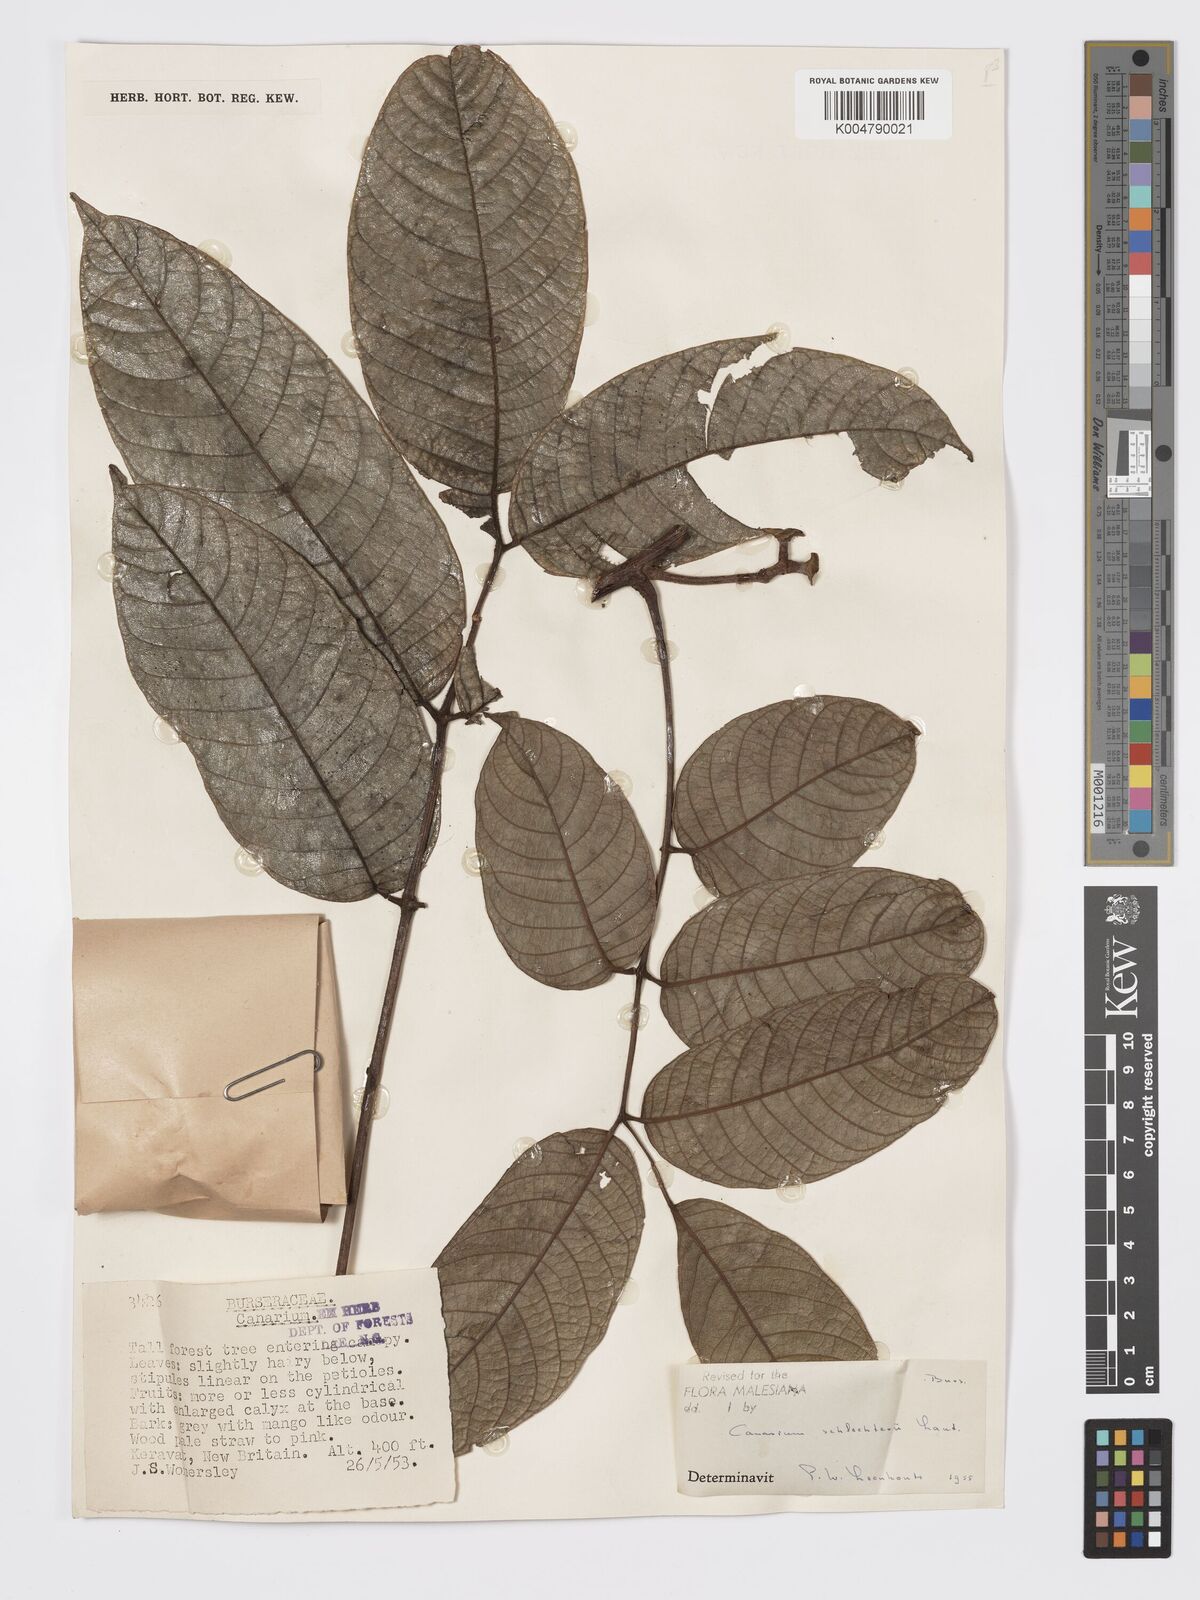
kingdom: Plantae
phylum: Tracheophyta
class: Magnoliopsida
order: Sapindales
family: Burseraceae
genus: Canarium
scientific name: Canarium schlechteri
